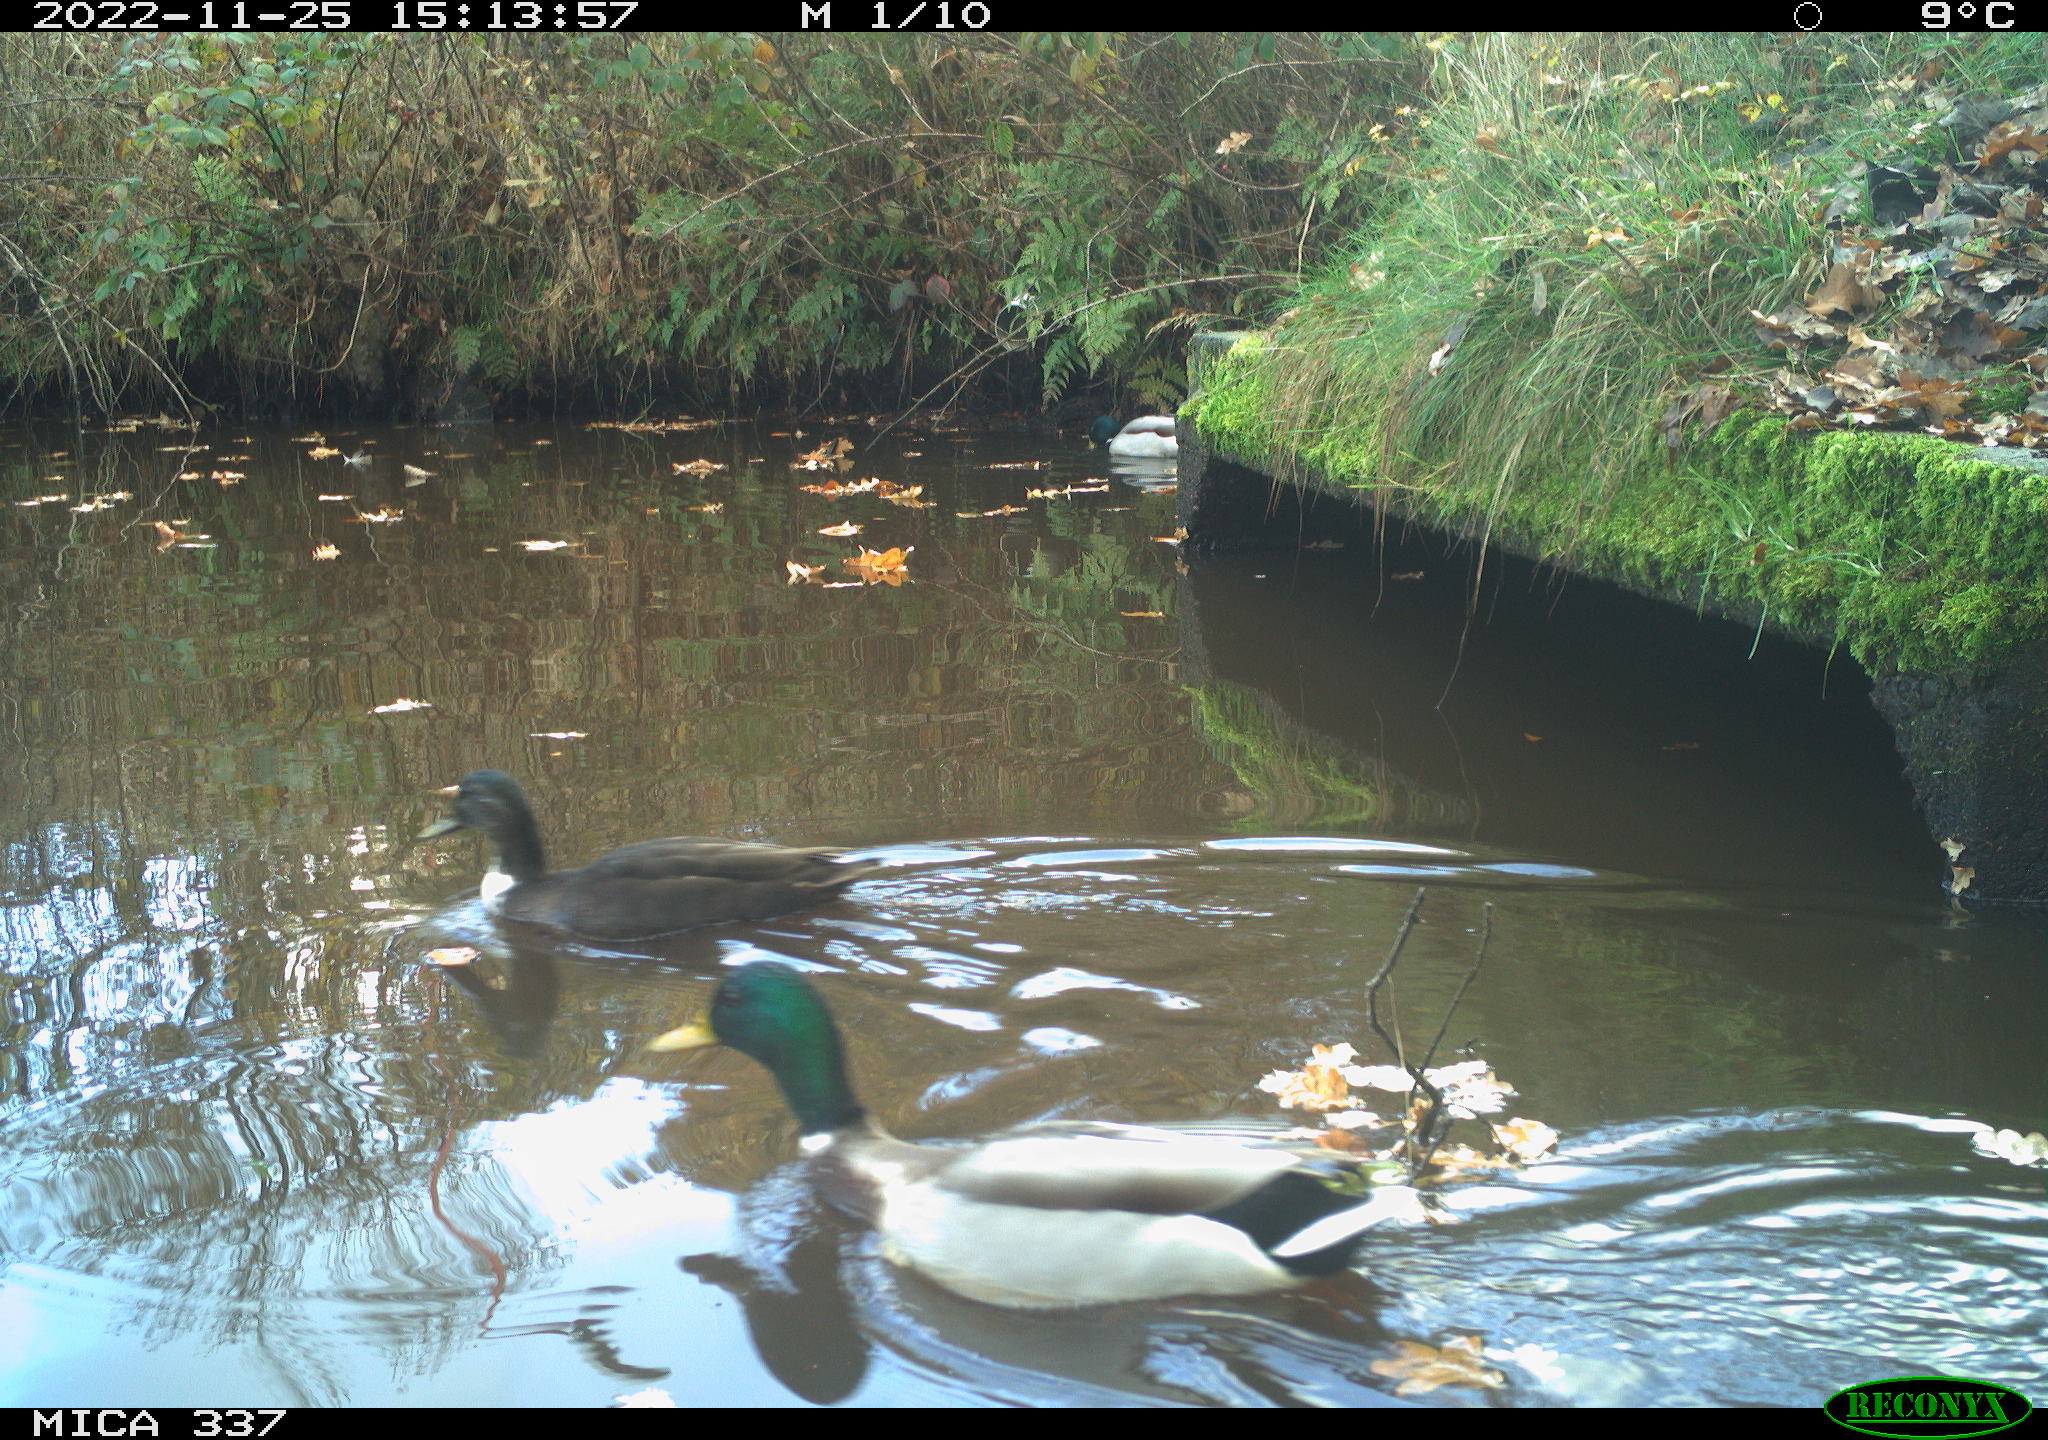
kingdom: Animalia
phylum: Chordata
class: Aves
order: Anseriformes
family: Anatidae
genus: Anas
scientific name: Anas
